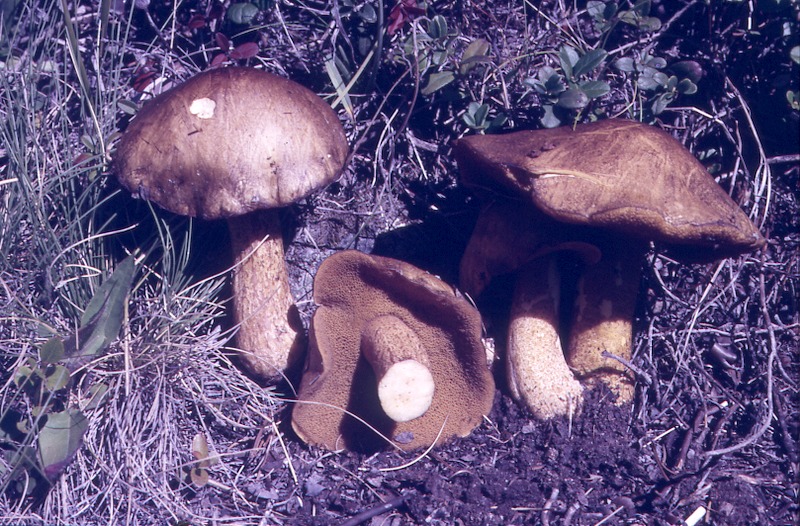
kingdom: Fungi
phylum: Basidiomycota
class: Agaricomycetes
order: Boletales
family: Suillaceae
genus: Suillus
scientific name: Suillus plorans
